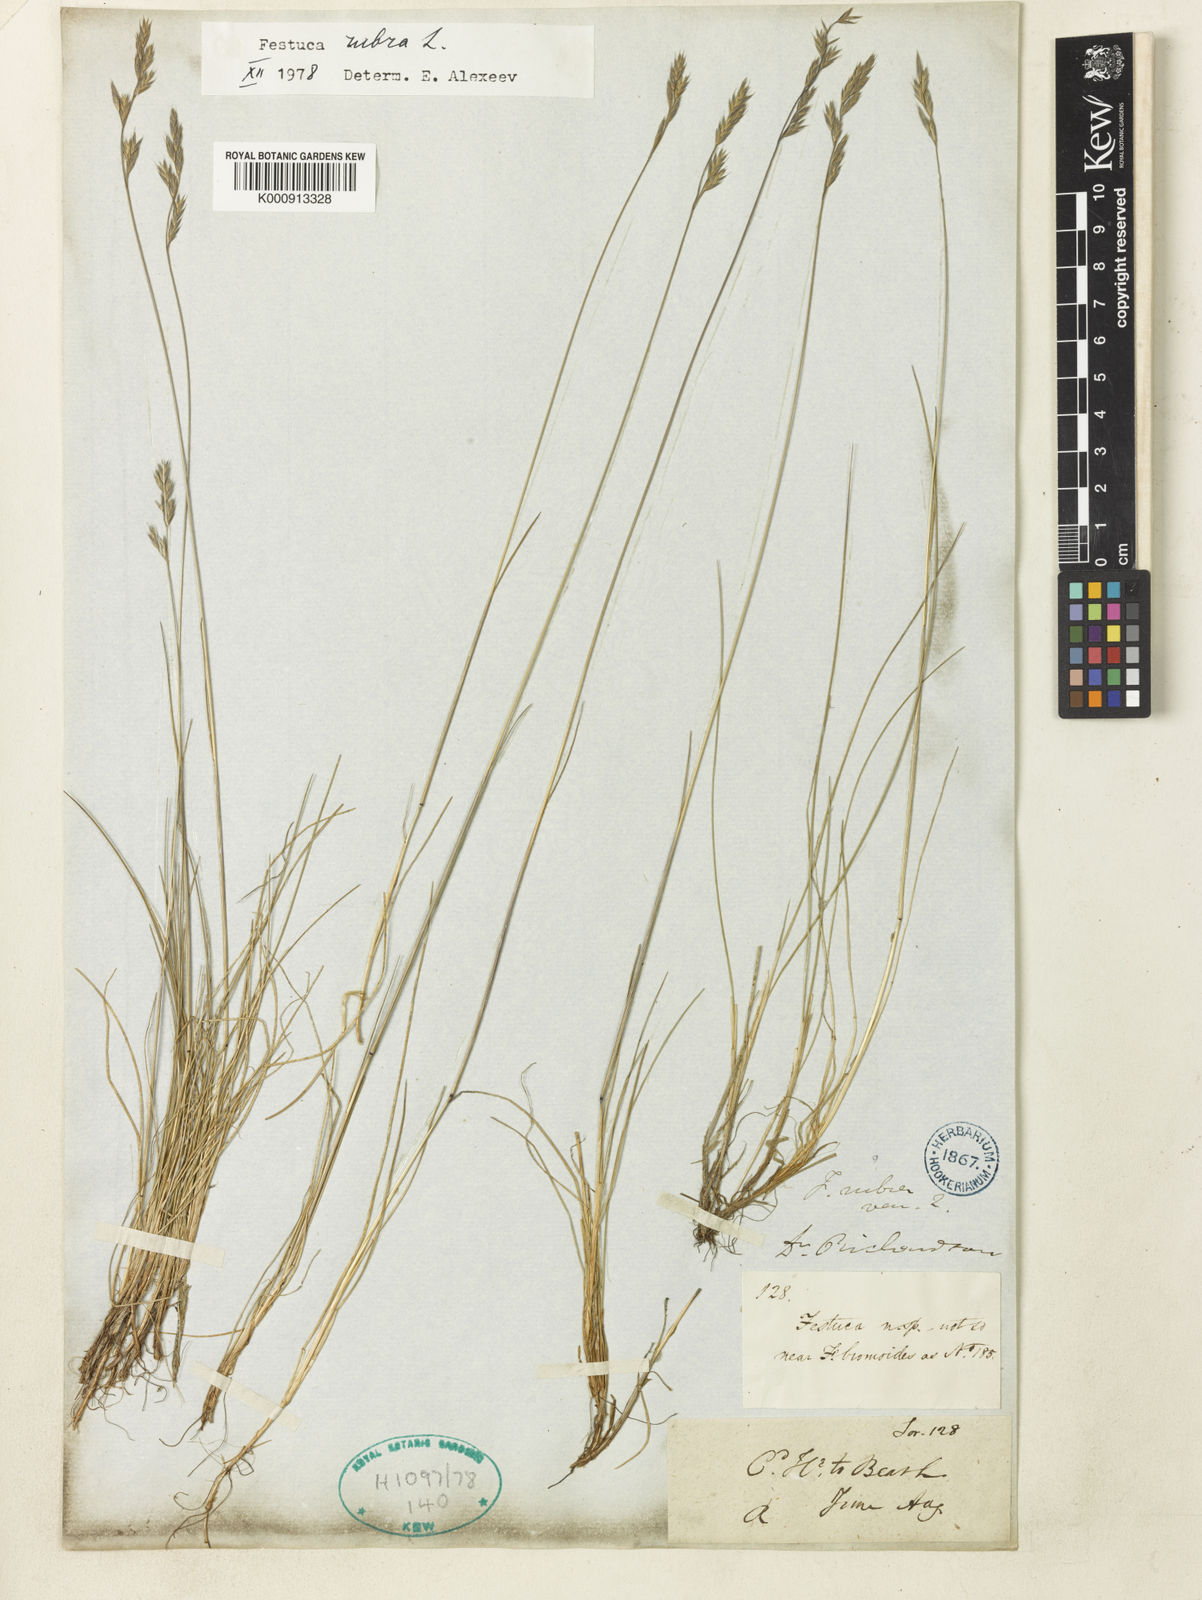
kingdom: Plantae
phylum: Tracheophyta
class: Liliopsida
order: Poales
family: Poaceae
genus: Festuca
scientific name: Festuca rubra
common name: Red fescue
